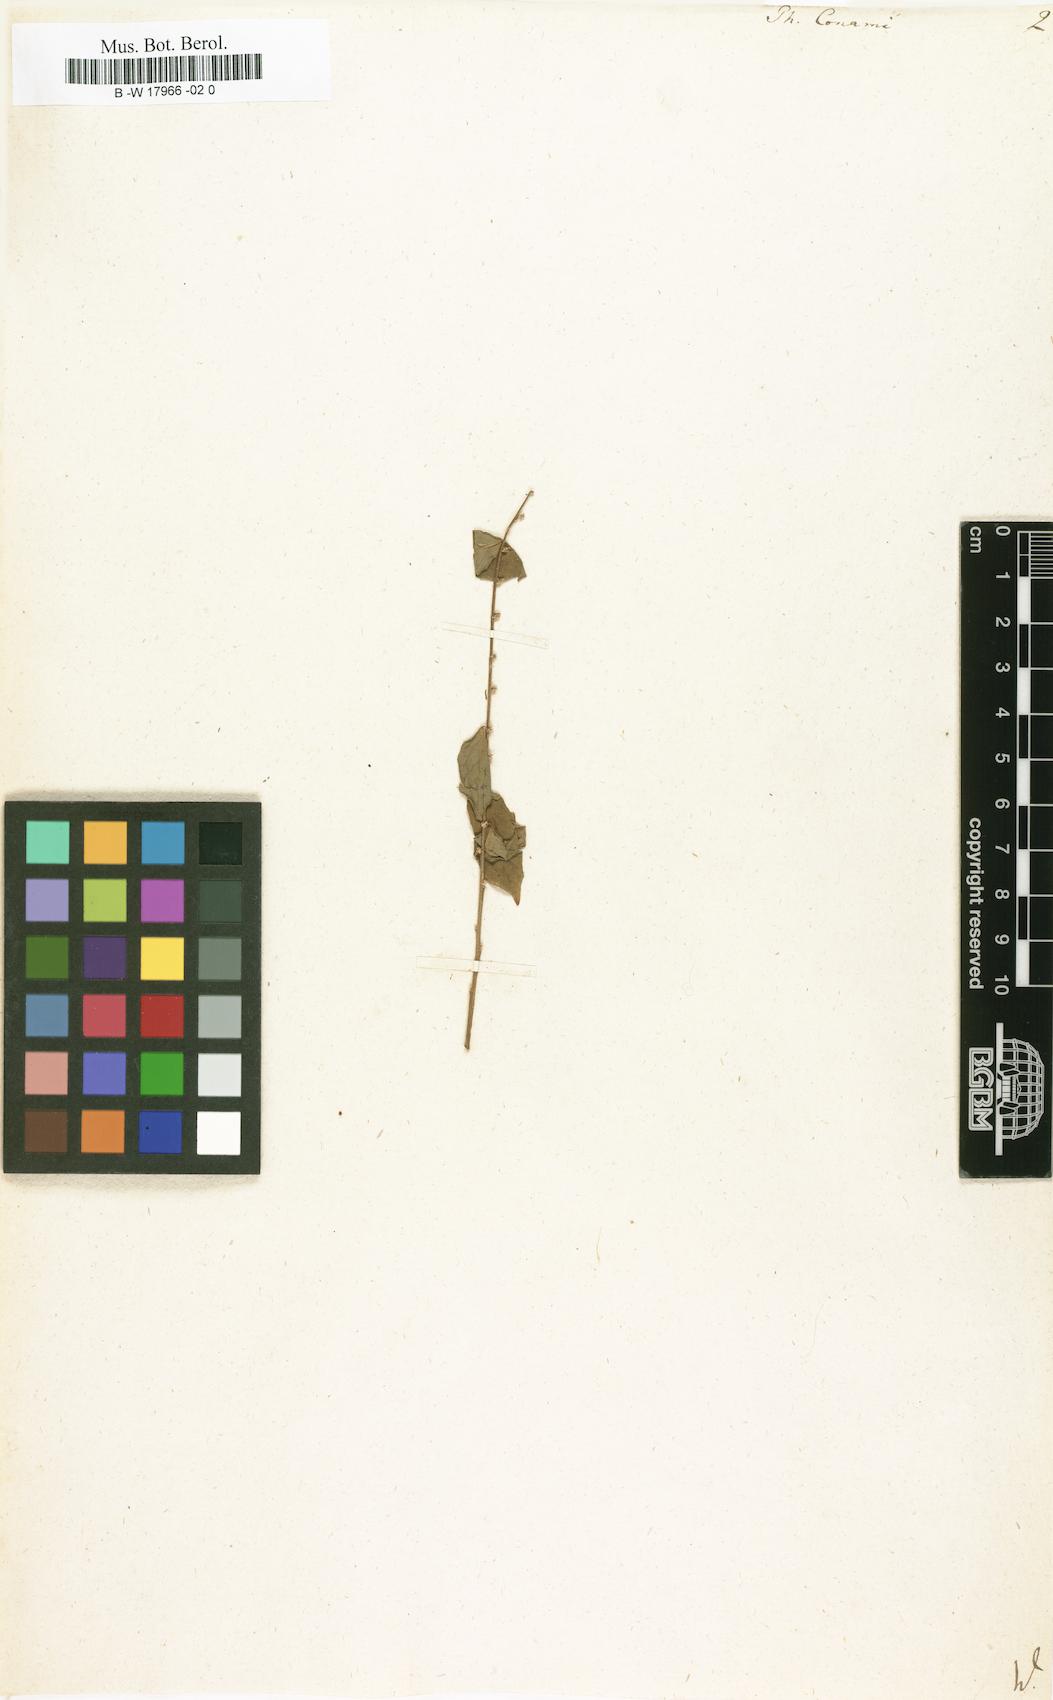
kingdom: Plantae
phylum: Tracheophyta
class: Magnoliopsida
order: Malpighiales
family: Phyllanthaceae
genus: Phyllanthus
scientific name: Phyllanthus brasiliensis
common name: Fish-poison
